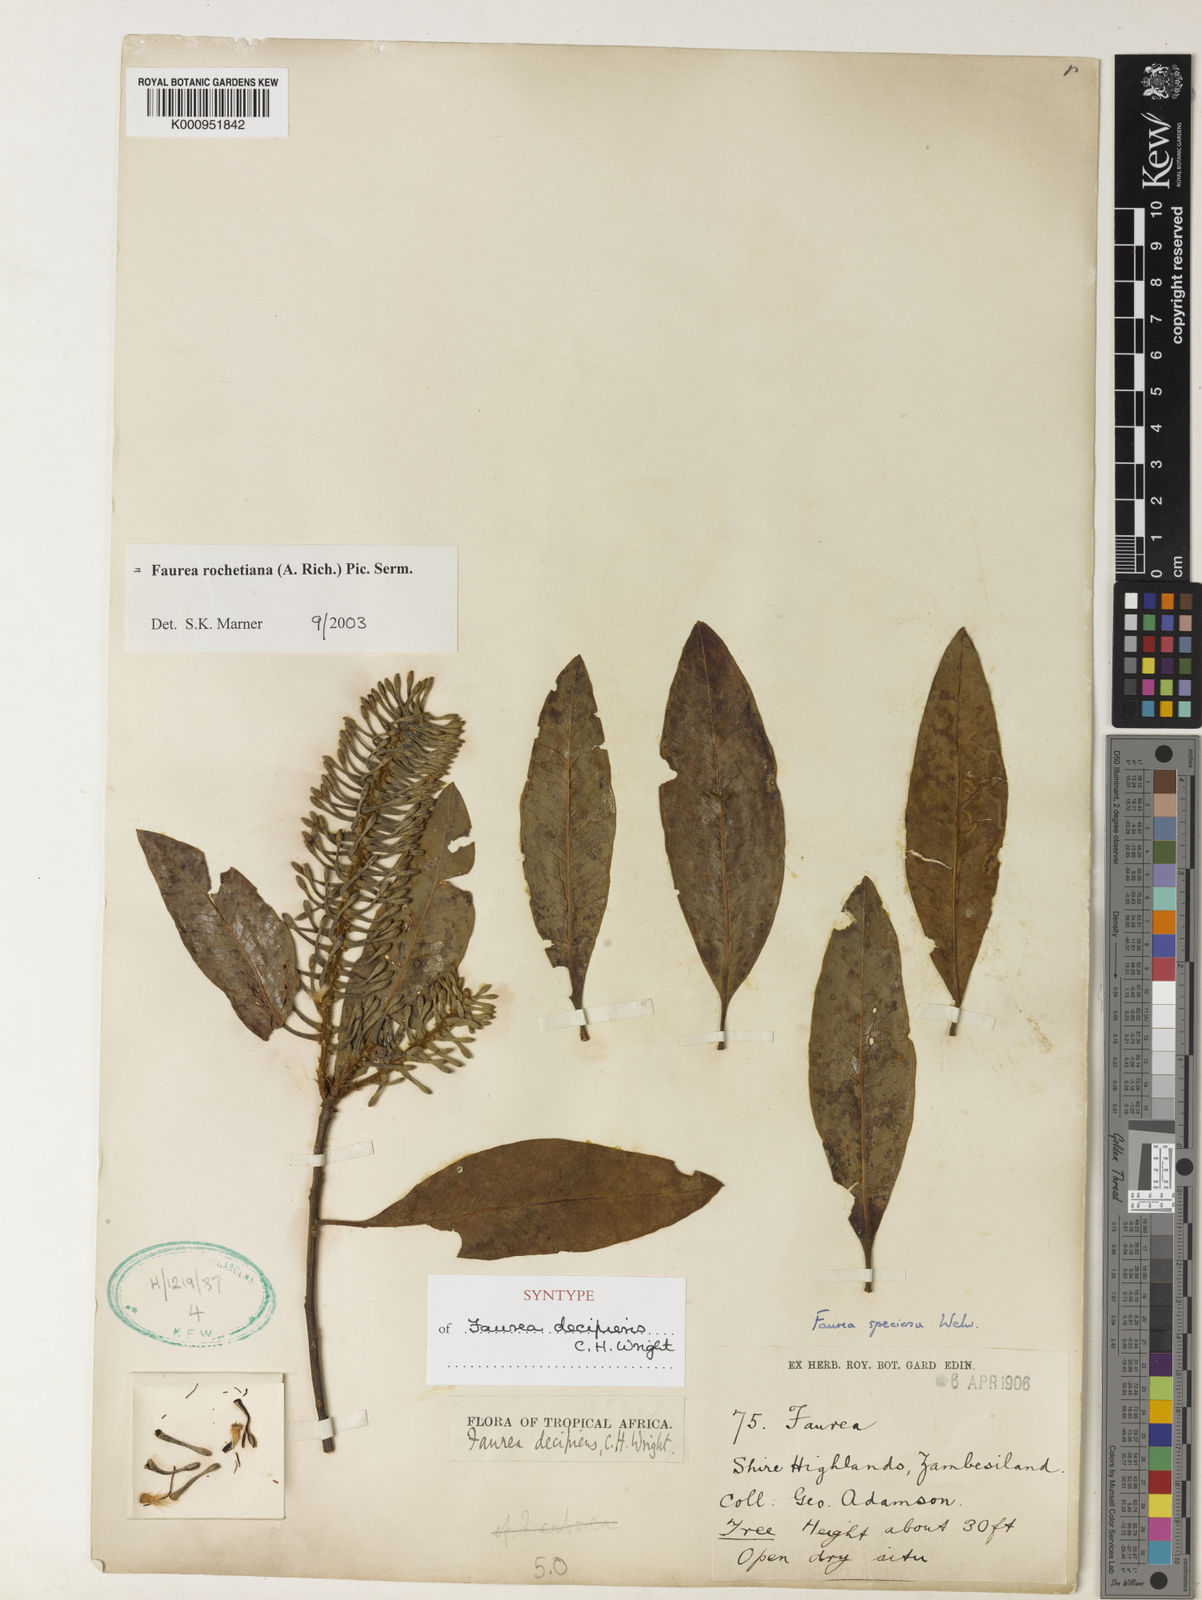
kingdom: Plantae
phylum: Tracheophyta
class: Magnoliopsida
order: Proteales
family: Proteaceae
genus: Faurea
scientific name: Faurea rochetiana
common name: Broad-leaved beech
